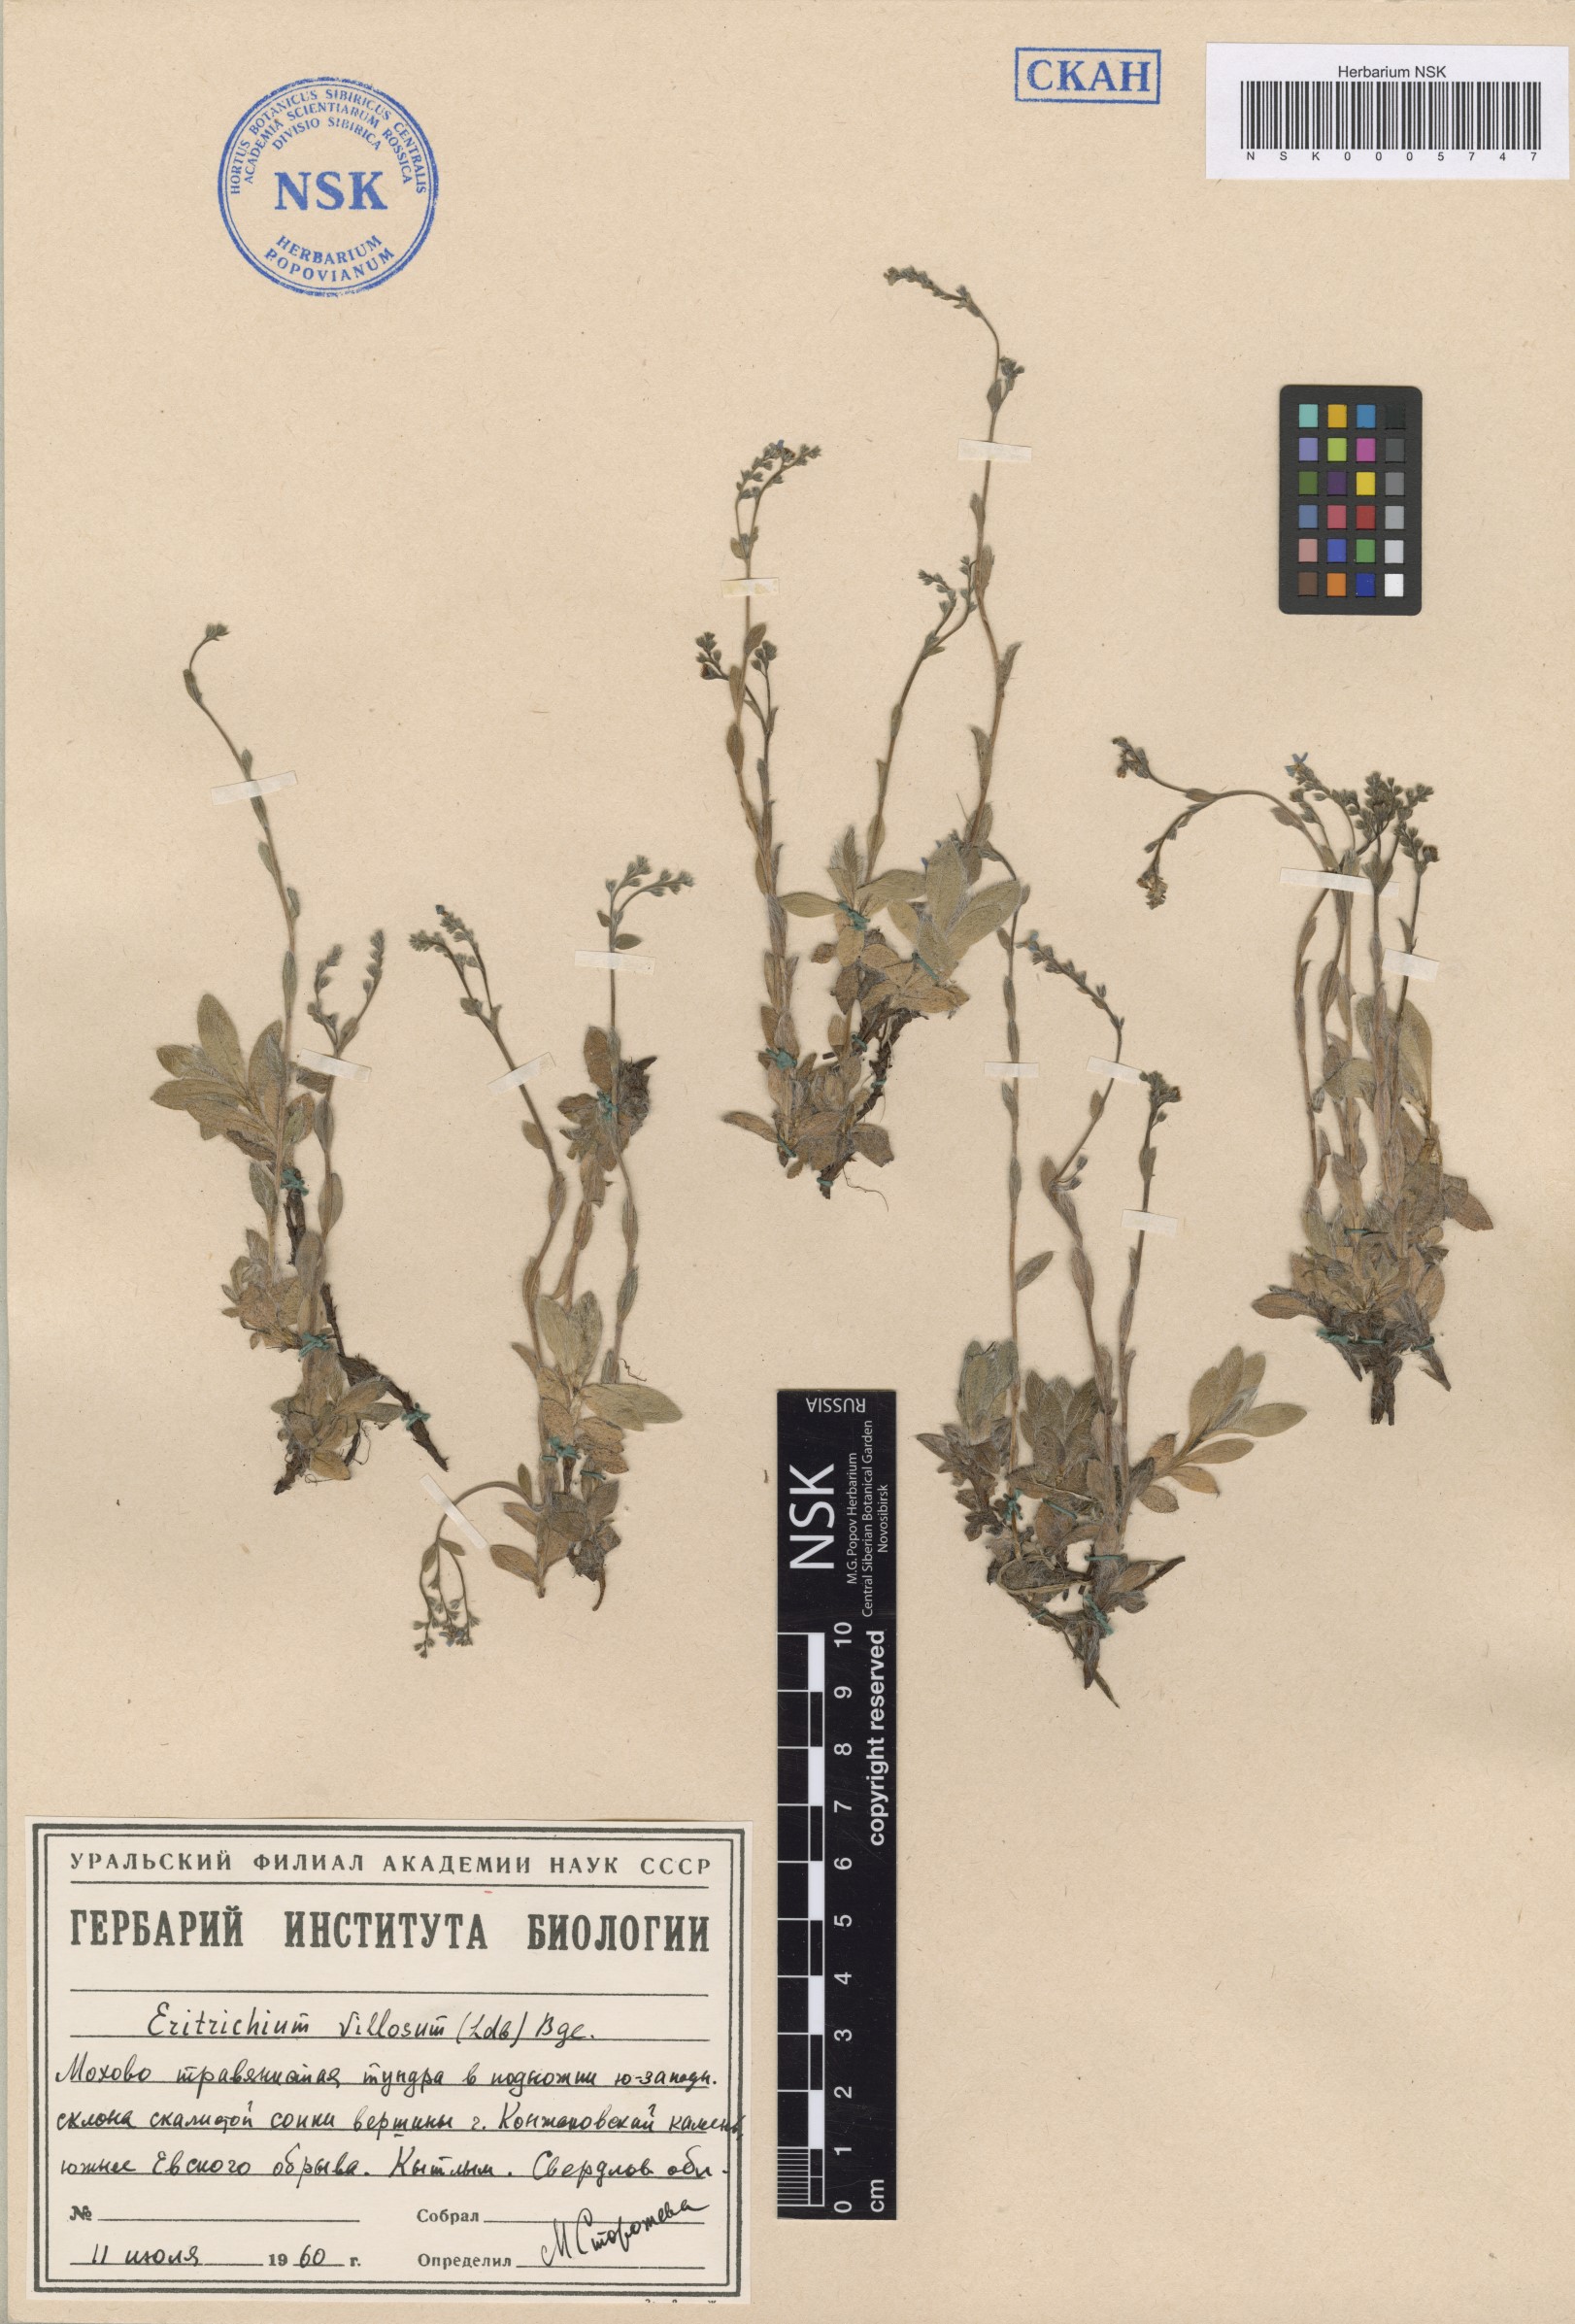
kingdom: Plantae
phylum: Tracheophyta
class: Magnoliopsida
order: Boraginales
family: Boraginaceae
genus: Eritrichium
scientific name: Eritrichium villosum
